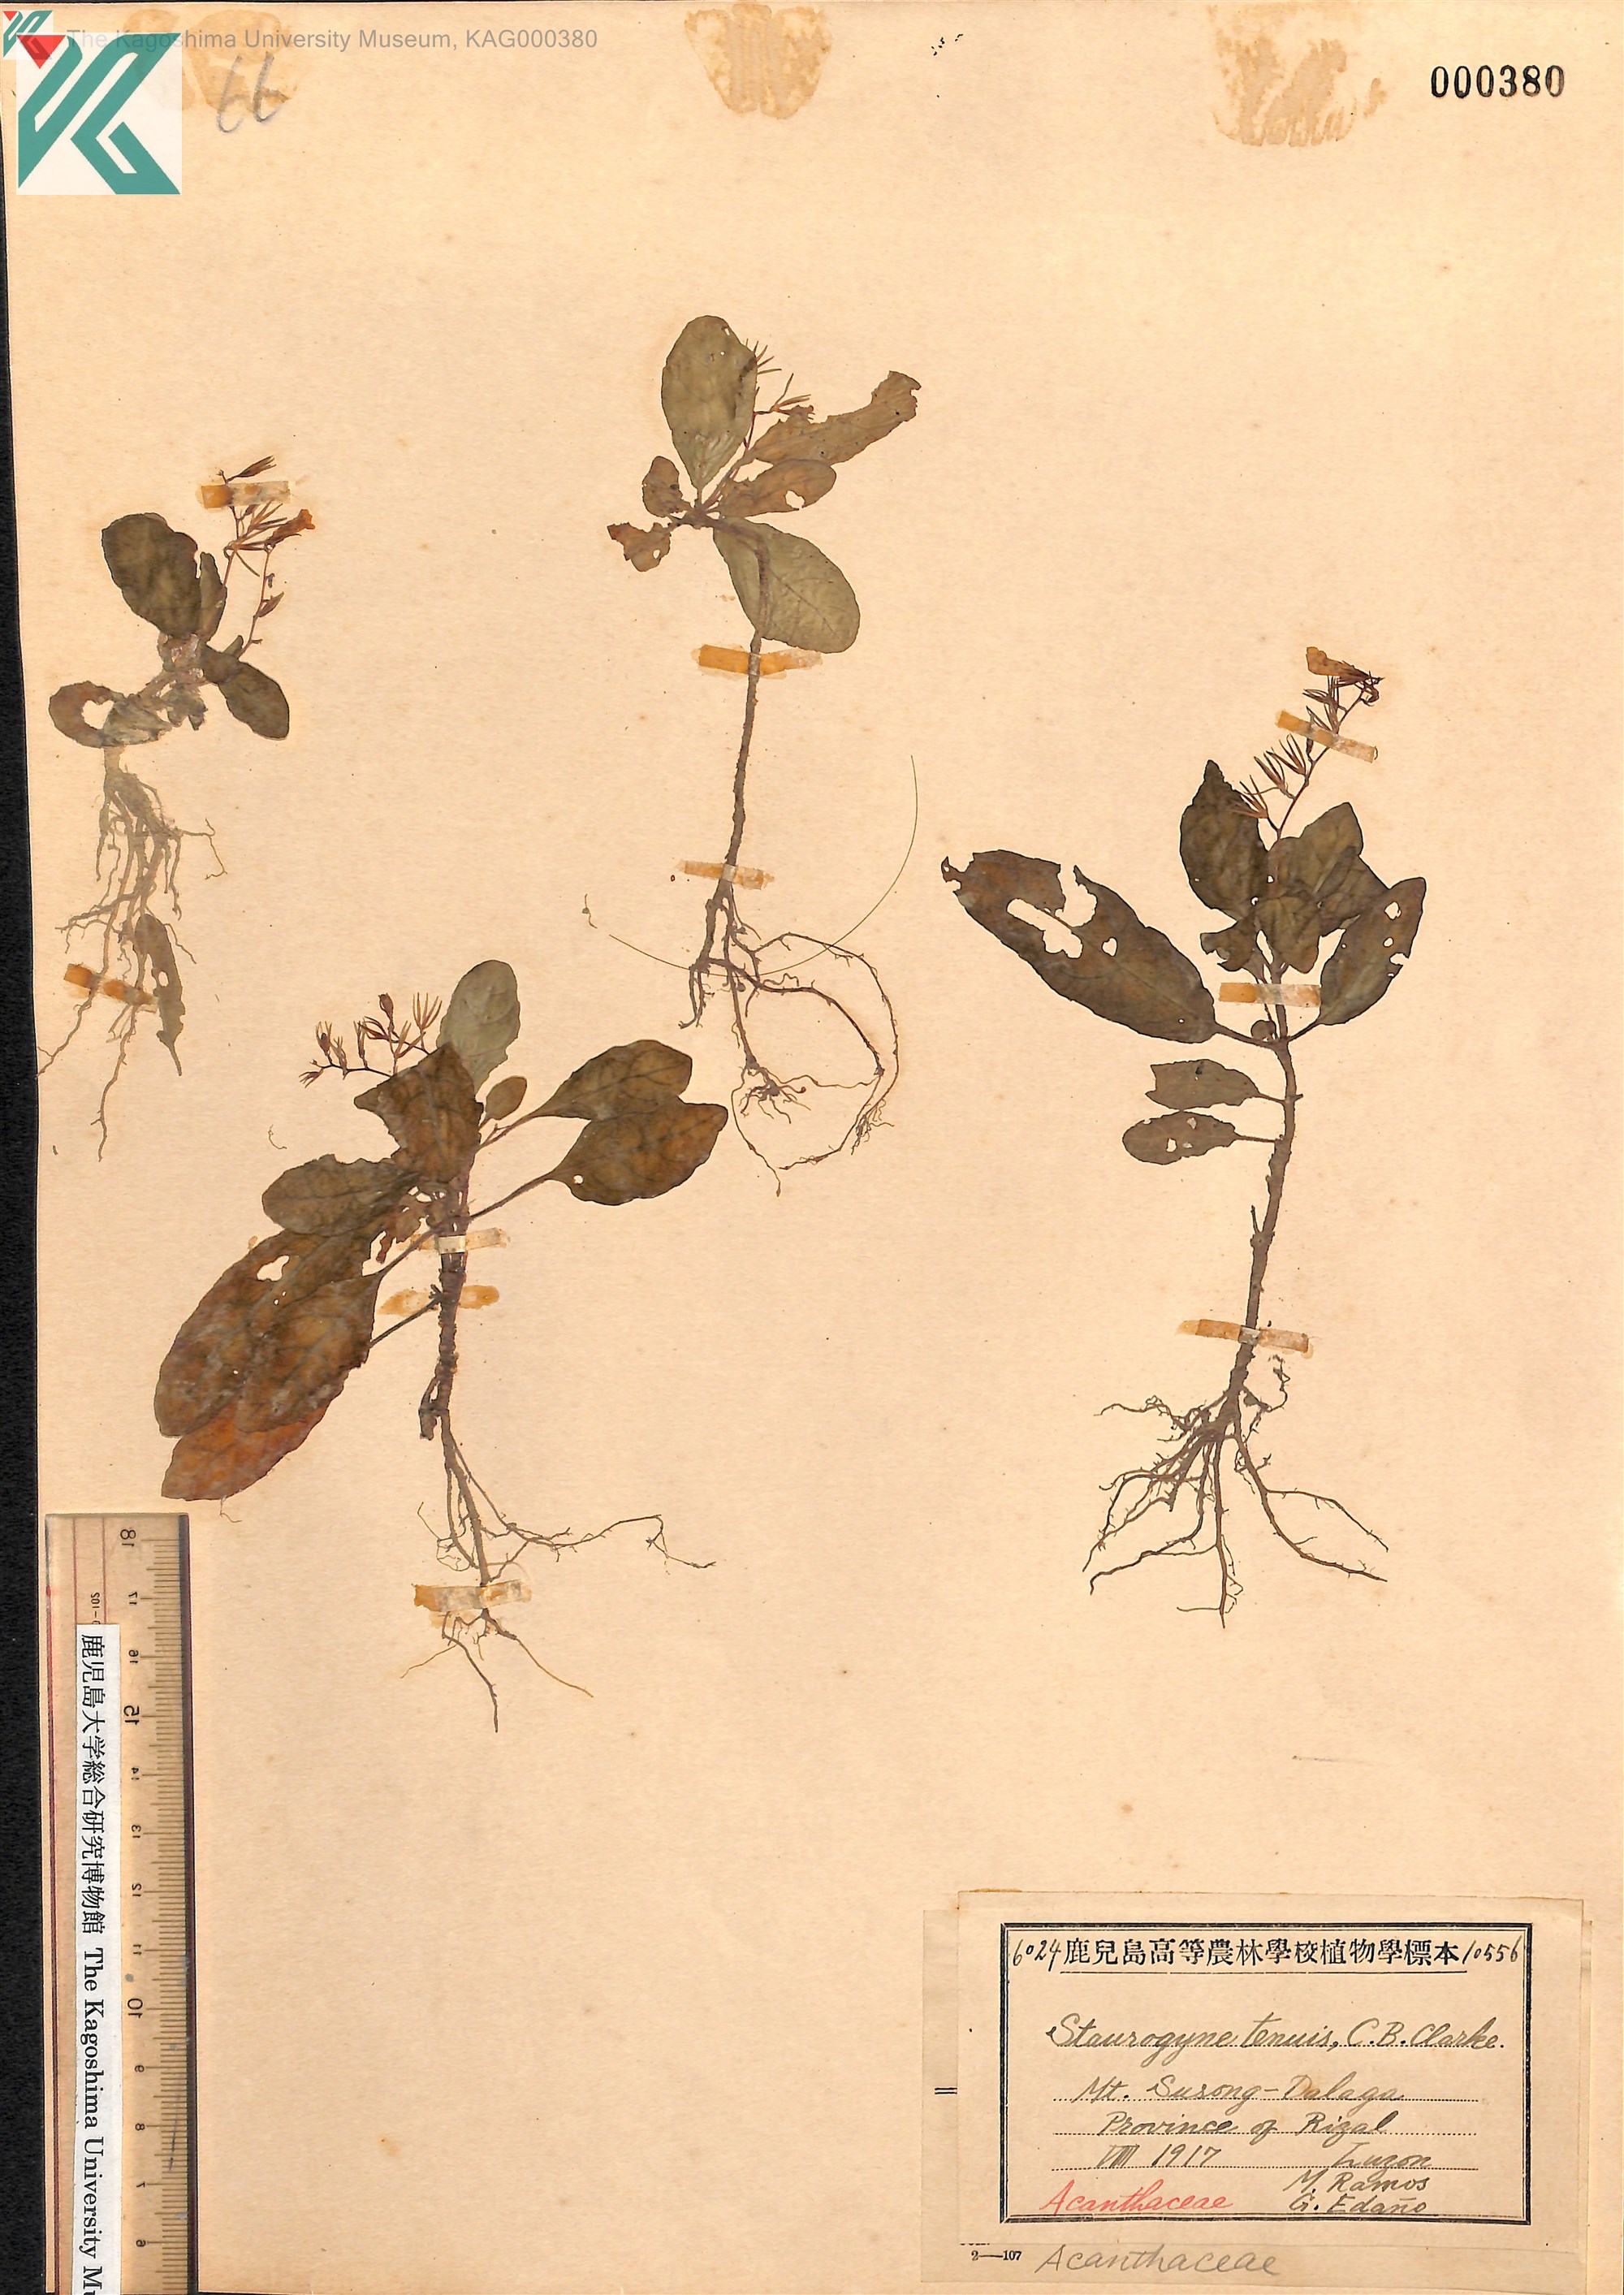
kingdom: Plantae
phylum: Tracheophyta
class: Magnoliopsida
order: Lamiales
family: Acanthaceae
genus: Staurogyne
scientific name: Staurogyne
